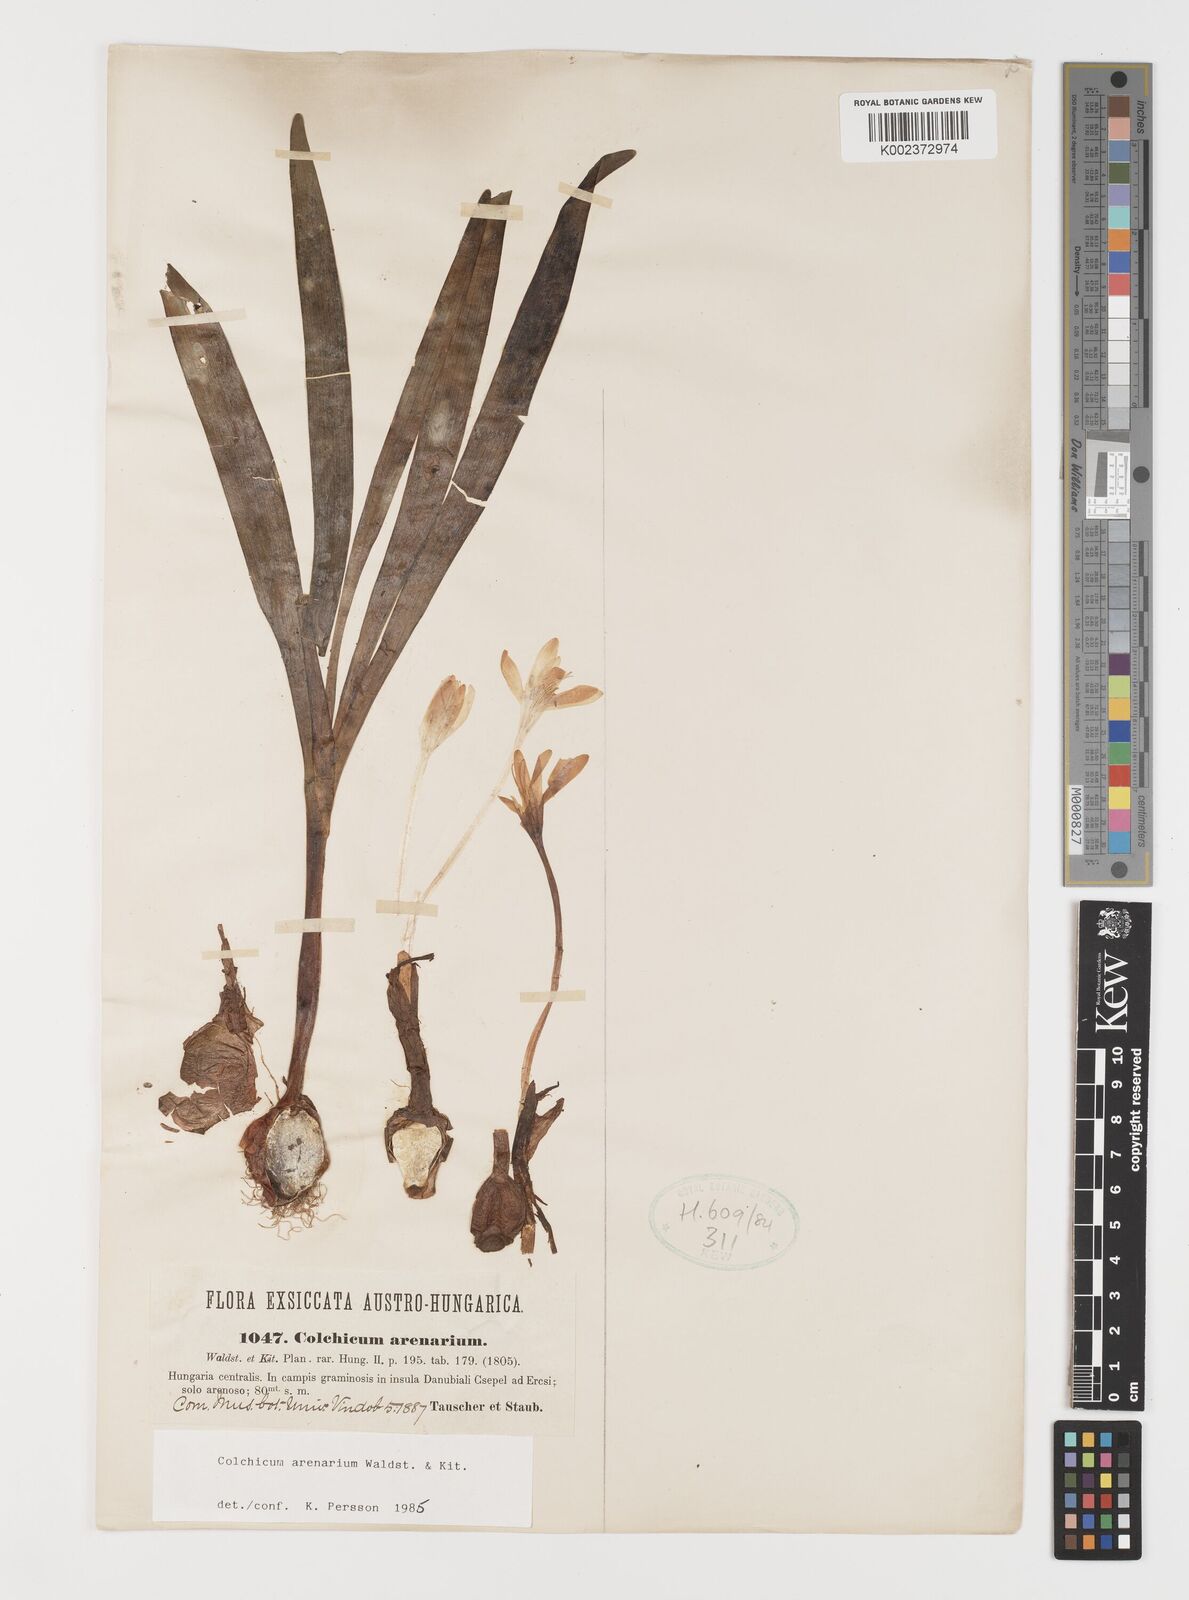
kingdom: Plantae
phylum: Tracheophyta
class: Liliopsida
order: Liliales
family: Colchicaceae
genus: Colchicum
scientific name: Colchicum arenarium
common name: Sand saffron
